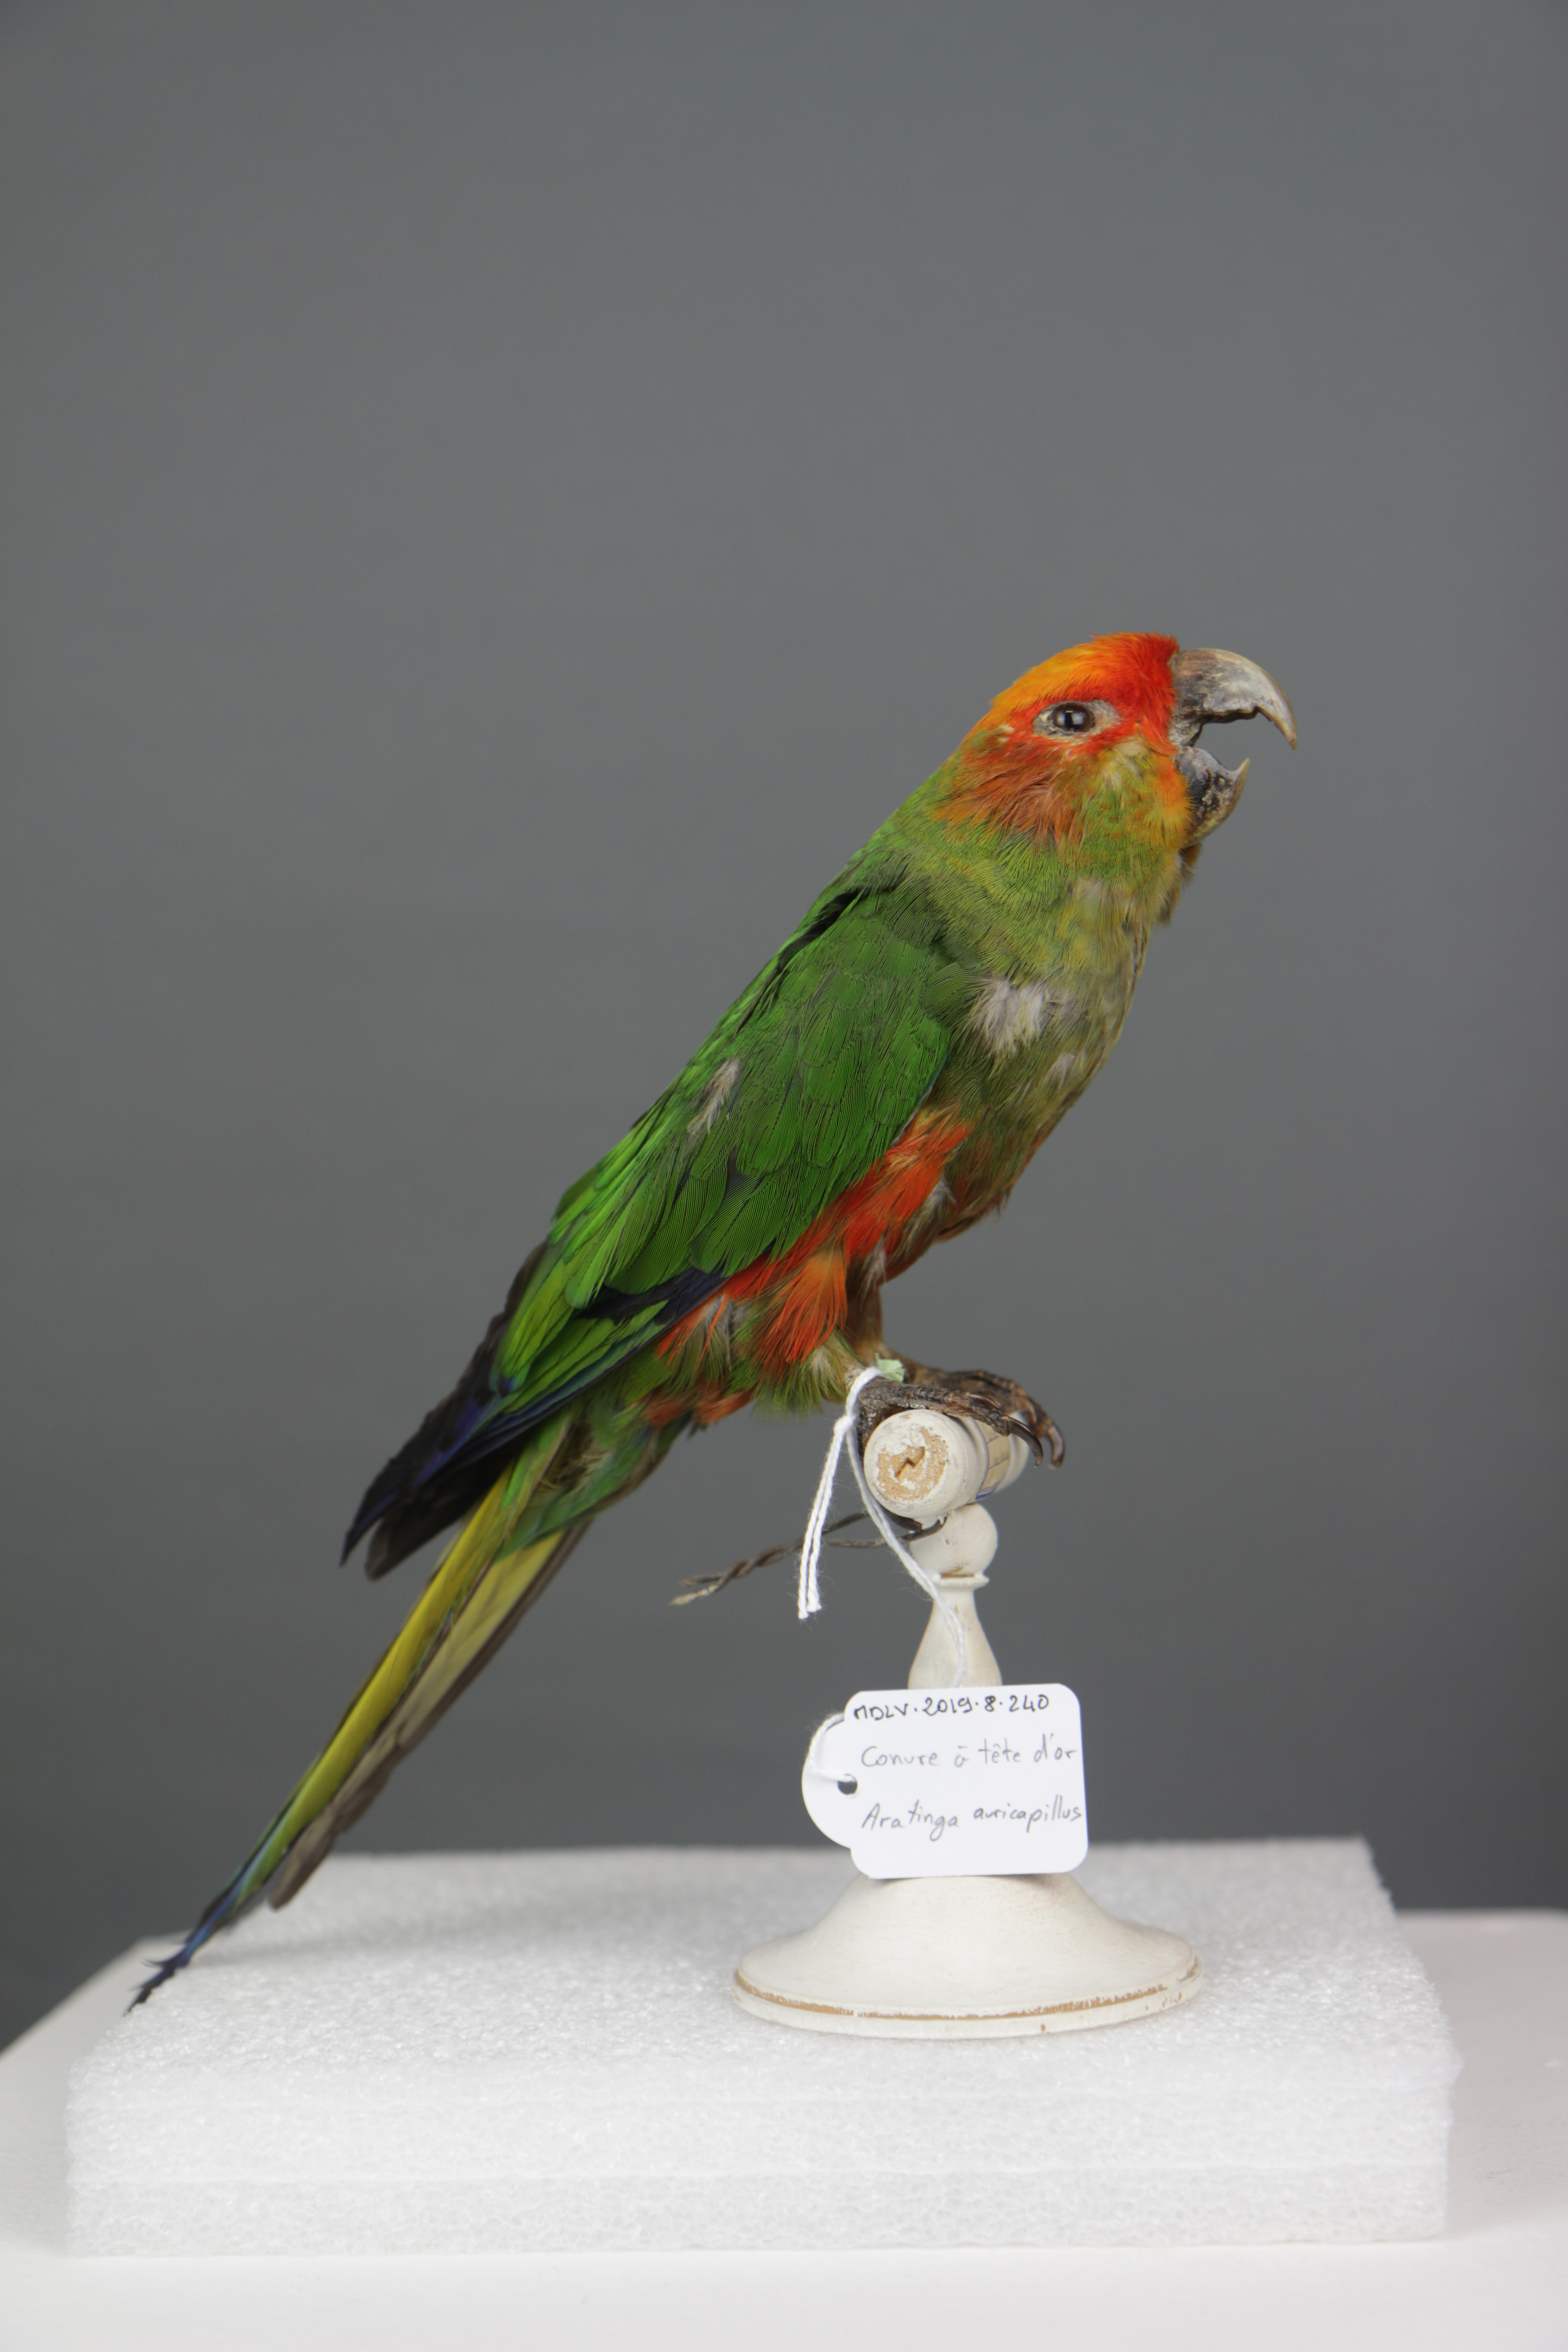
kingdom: Animalia
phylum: Chordata
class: Aves
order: Psittaciformes
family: Psittacidae
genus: Aratinga
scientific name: Aratinga auricapillus
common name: Golden-capped parakeet
